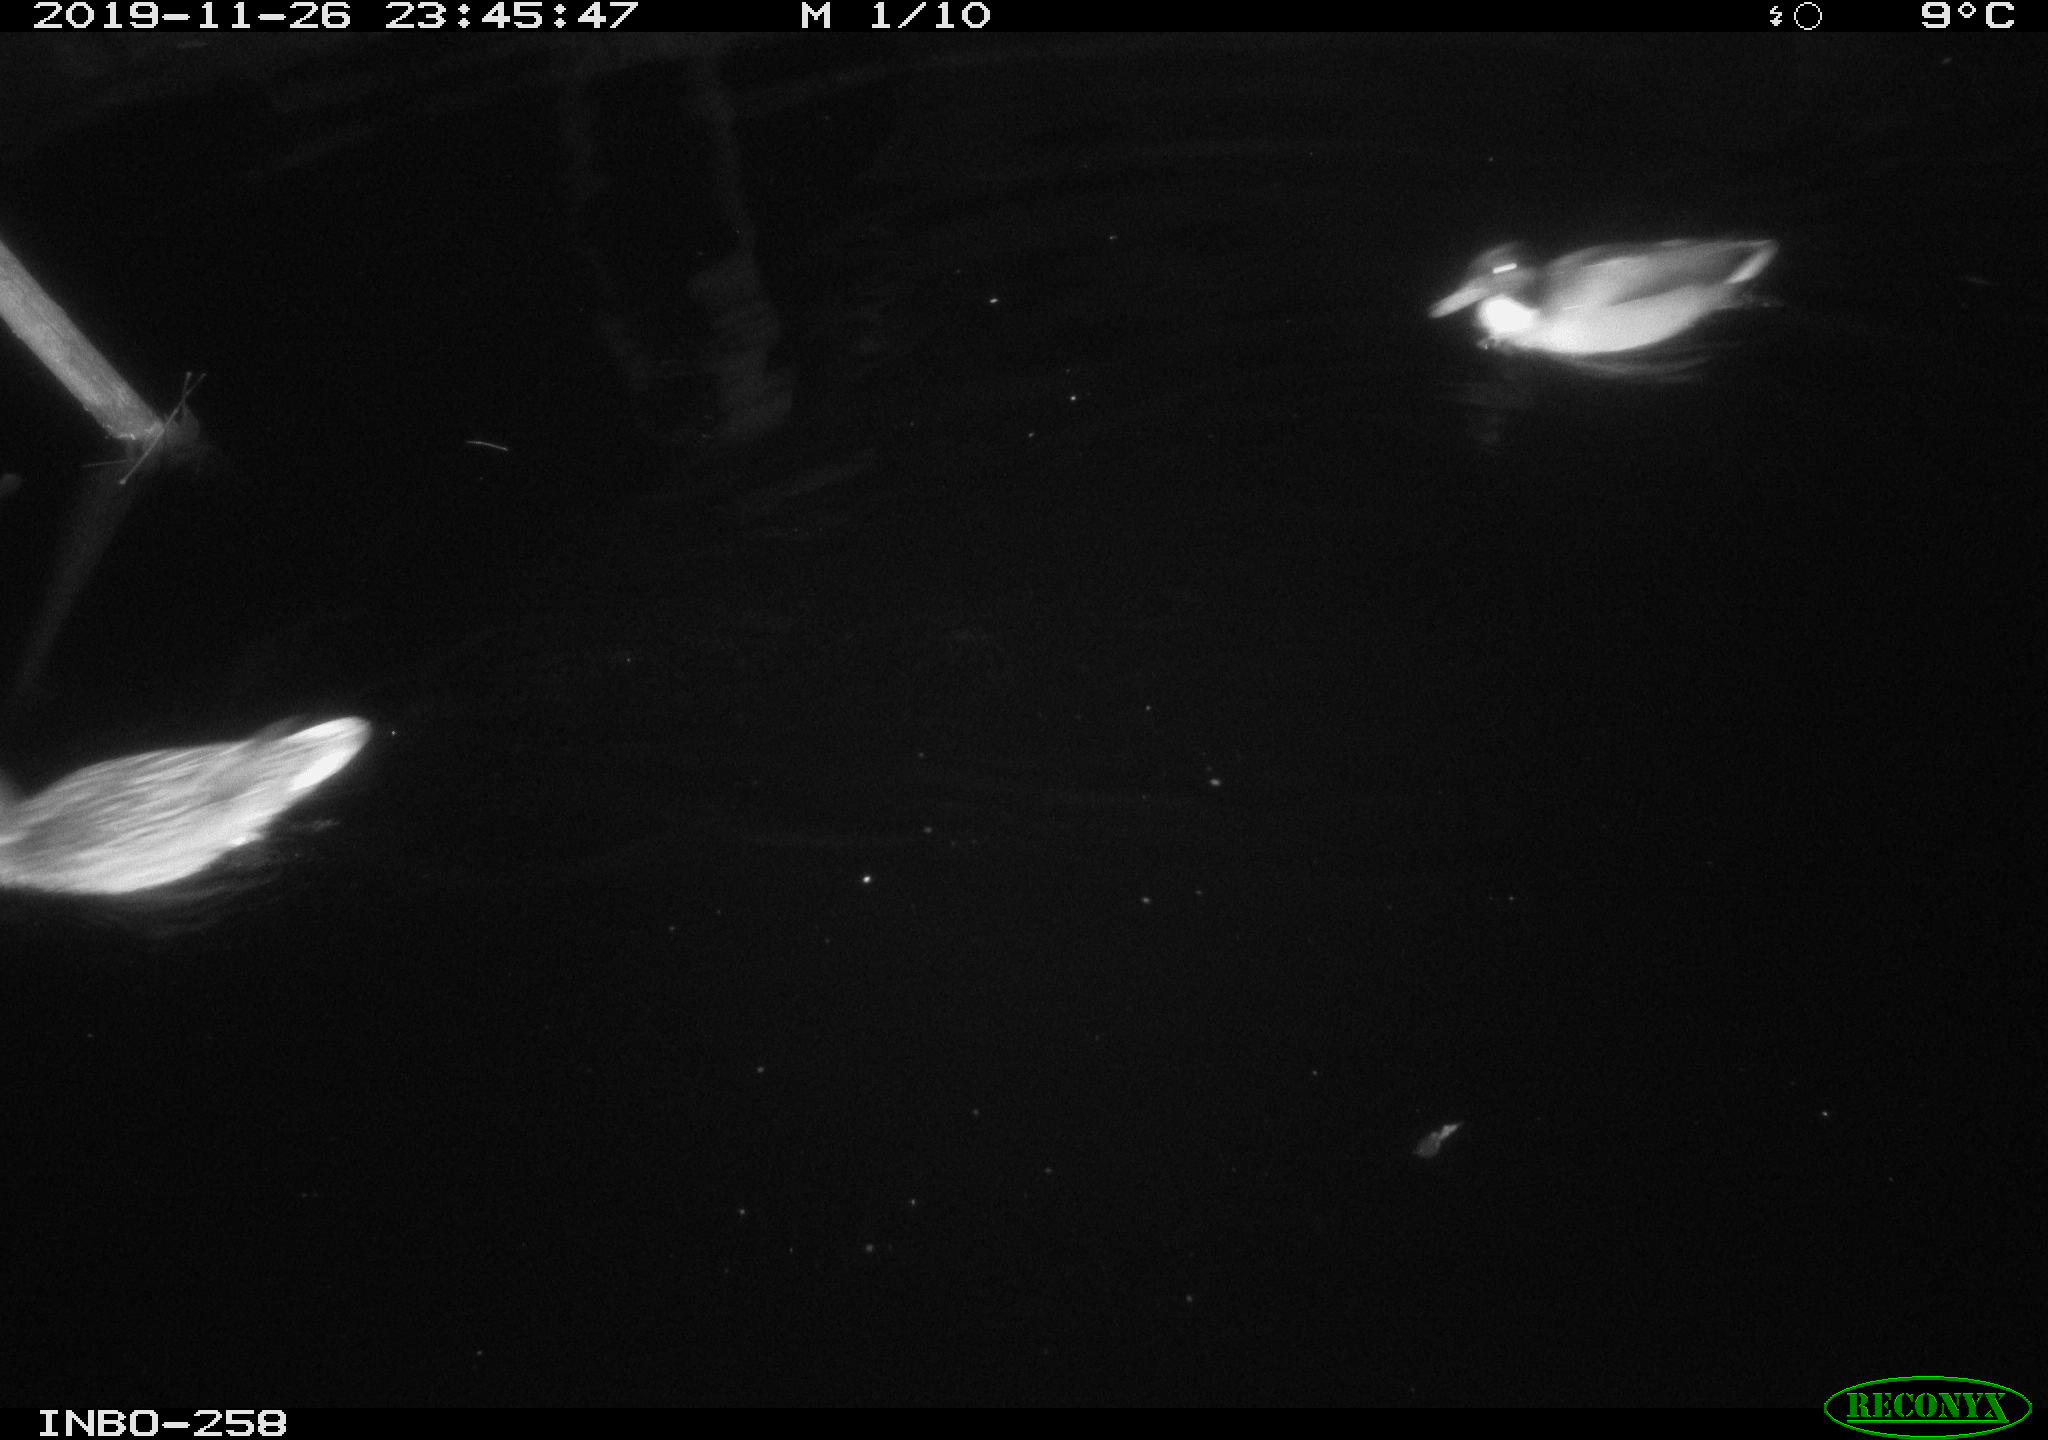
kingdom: Animalia
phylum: Chordata
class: Aves
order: Anseriformes
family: Anatidae
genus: Anas
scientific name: Anas platyrhynchos
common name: Mallard
